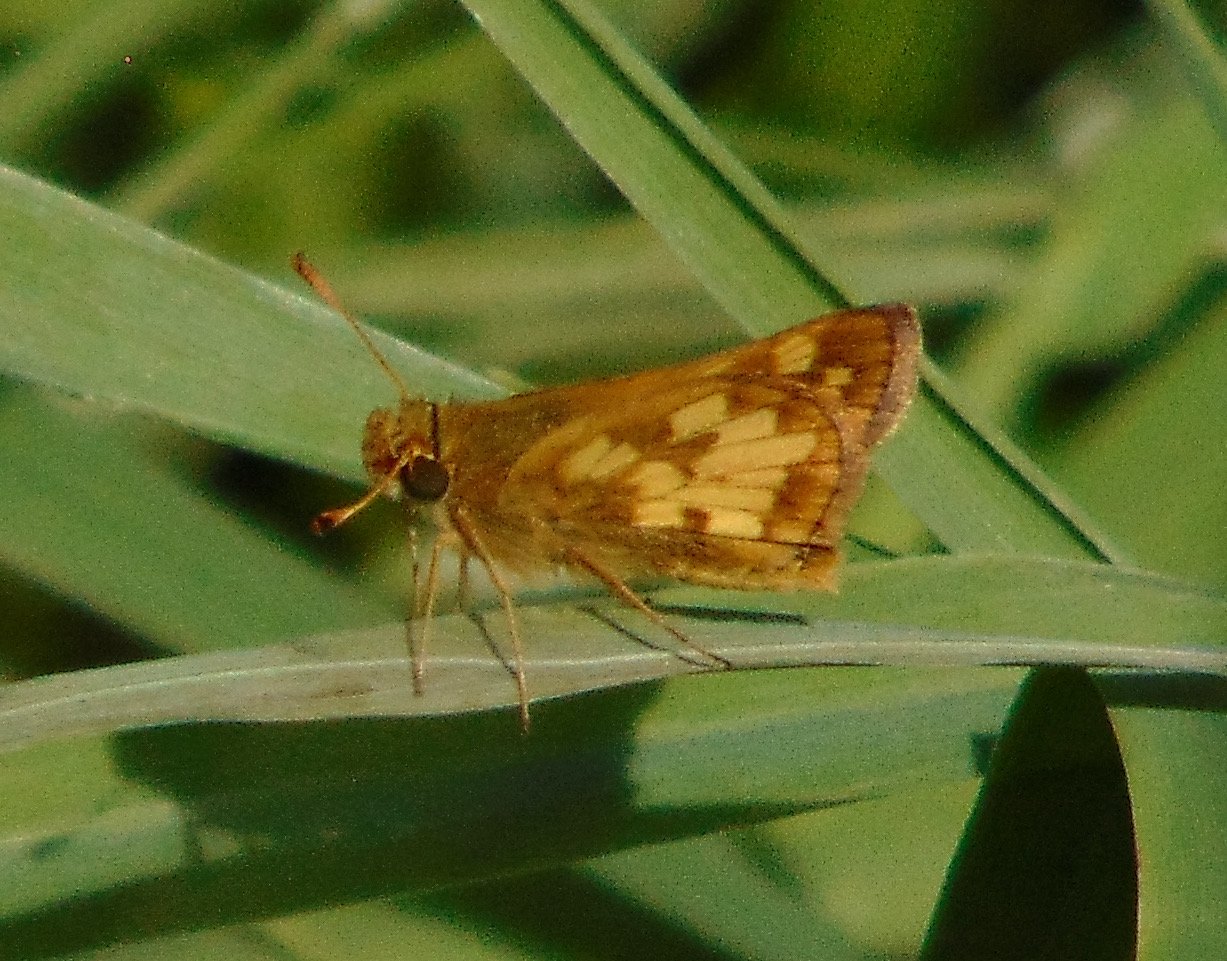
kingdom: Animalia
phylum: Arthropoda
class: Insecta
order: Lepidoptera
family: Hesperiidae
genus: Polites
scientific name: Polites coras
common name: Peck's Skipper
